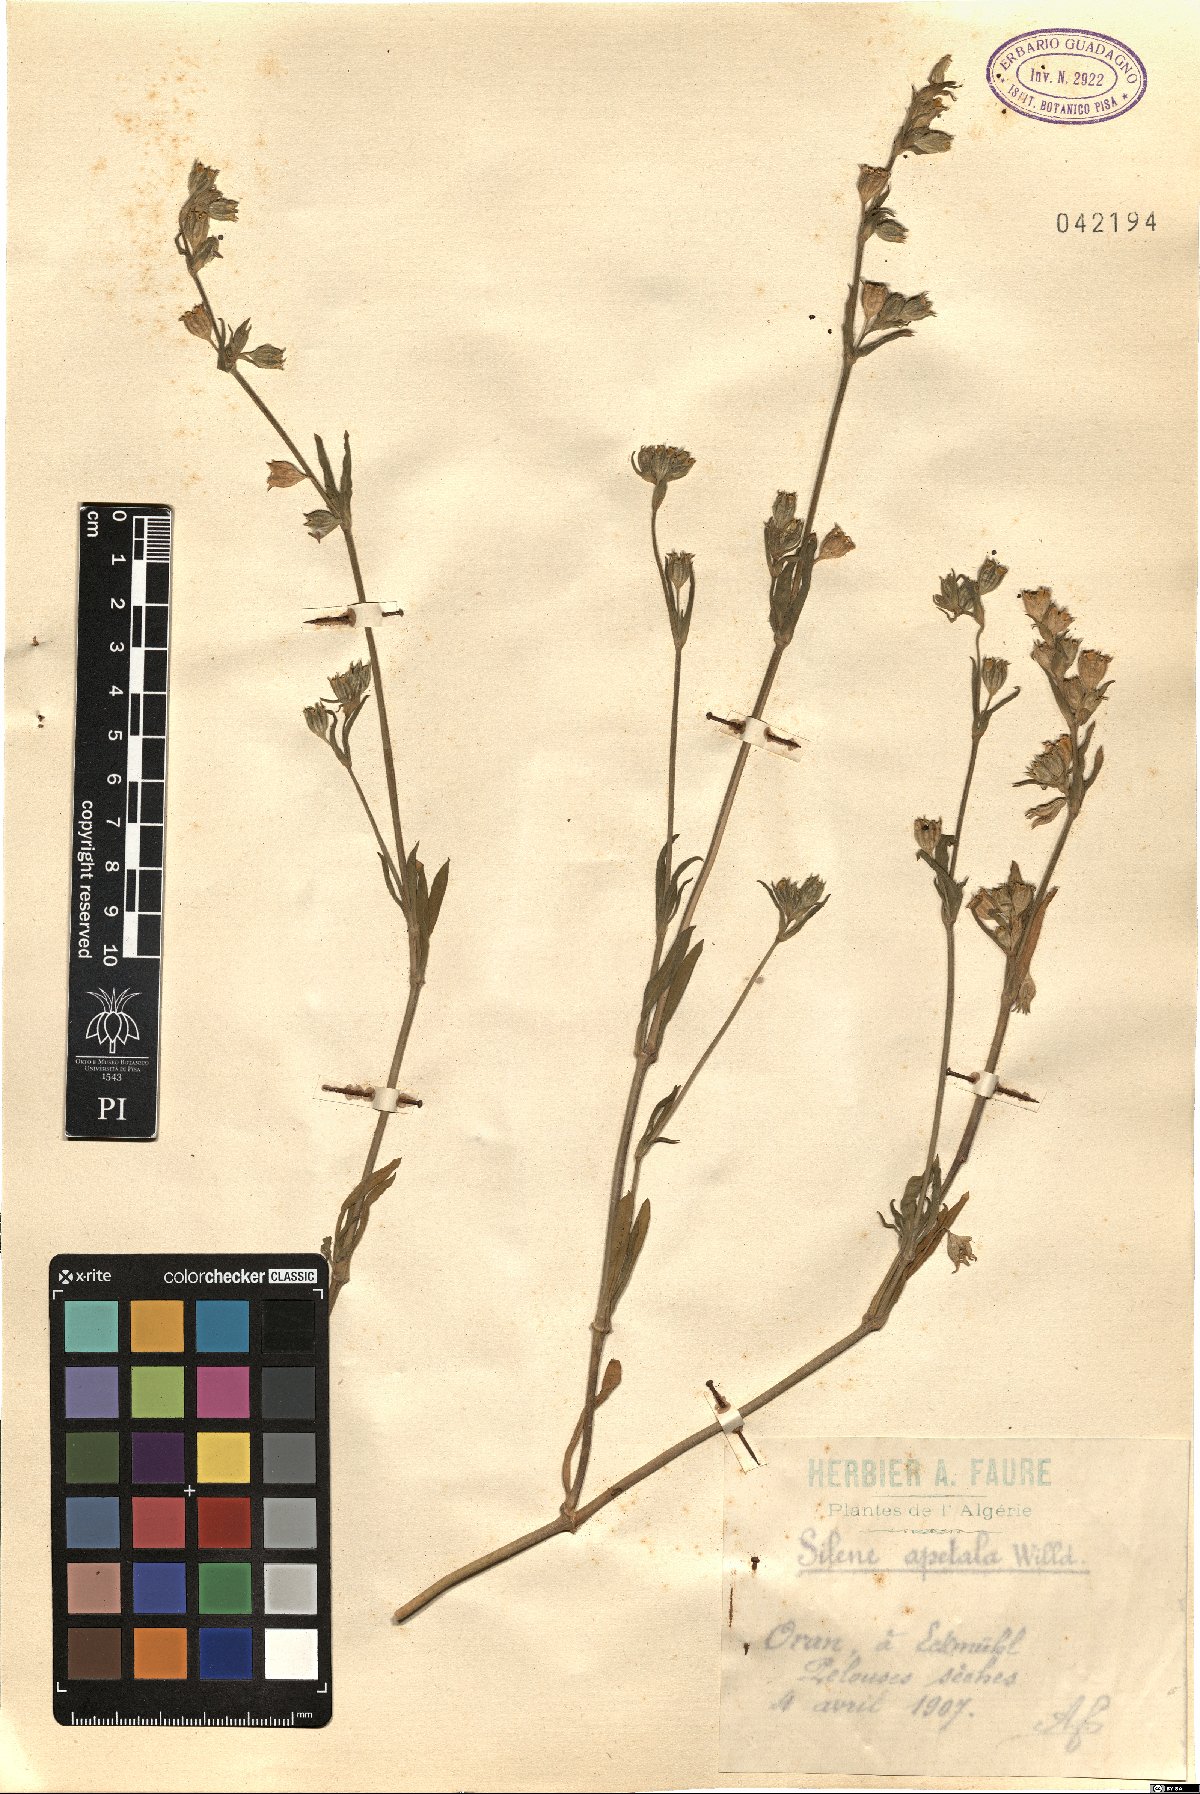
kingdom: Plantae
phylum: Tracheophyta
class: Magnoliopsida
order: Caryophyllales
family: Caryophyllaceae
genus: Silene
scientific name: Silene apetala
